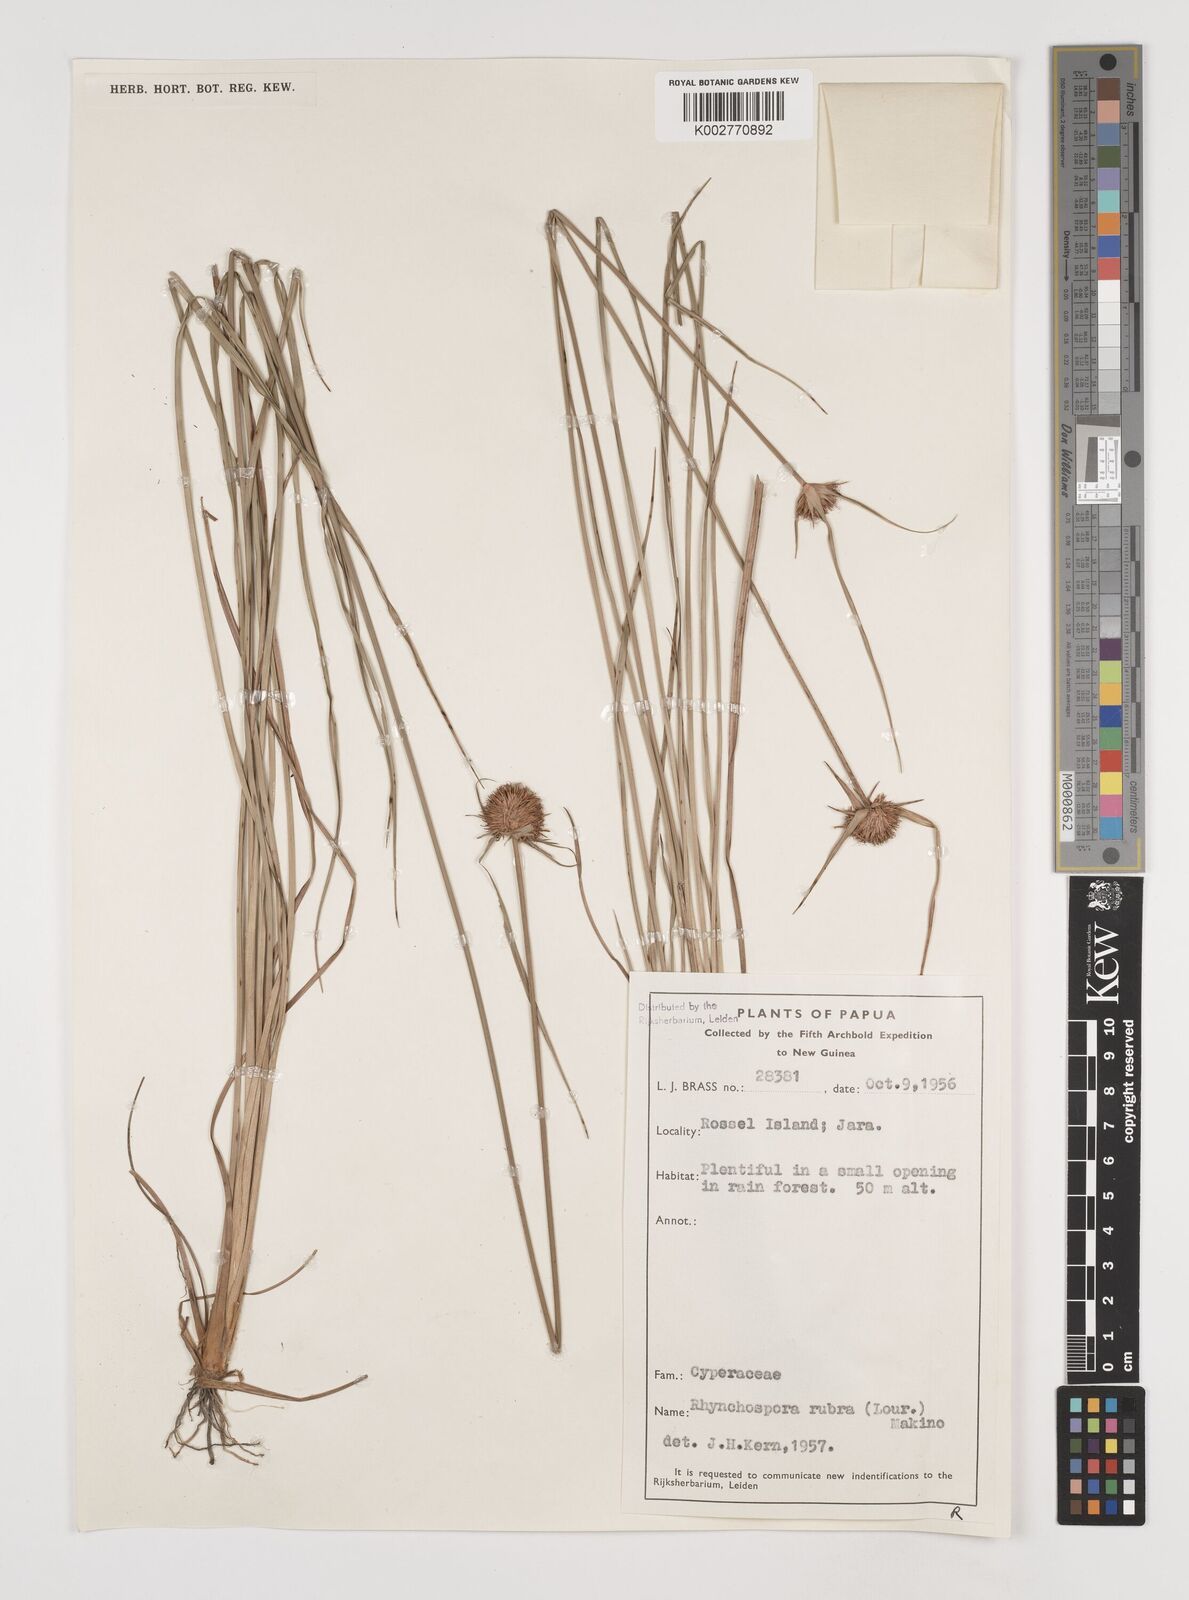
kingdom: Plantae
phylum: Tracheophyta
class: Liliopsida
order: Poales
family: Cyperaceae
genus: Rhynchospora
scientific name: Rhynchospora rubra
